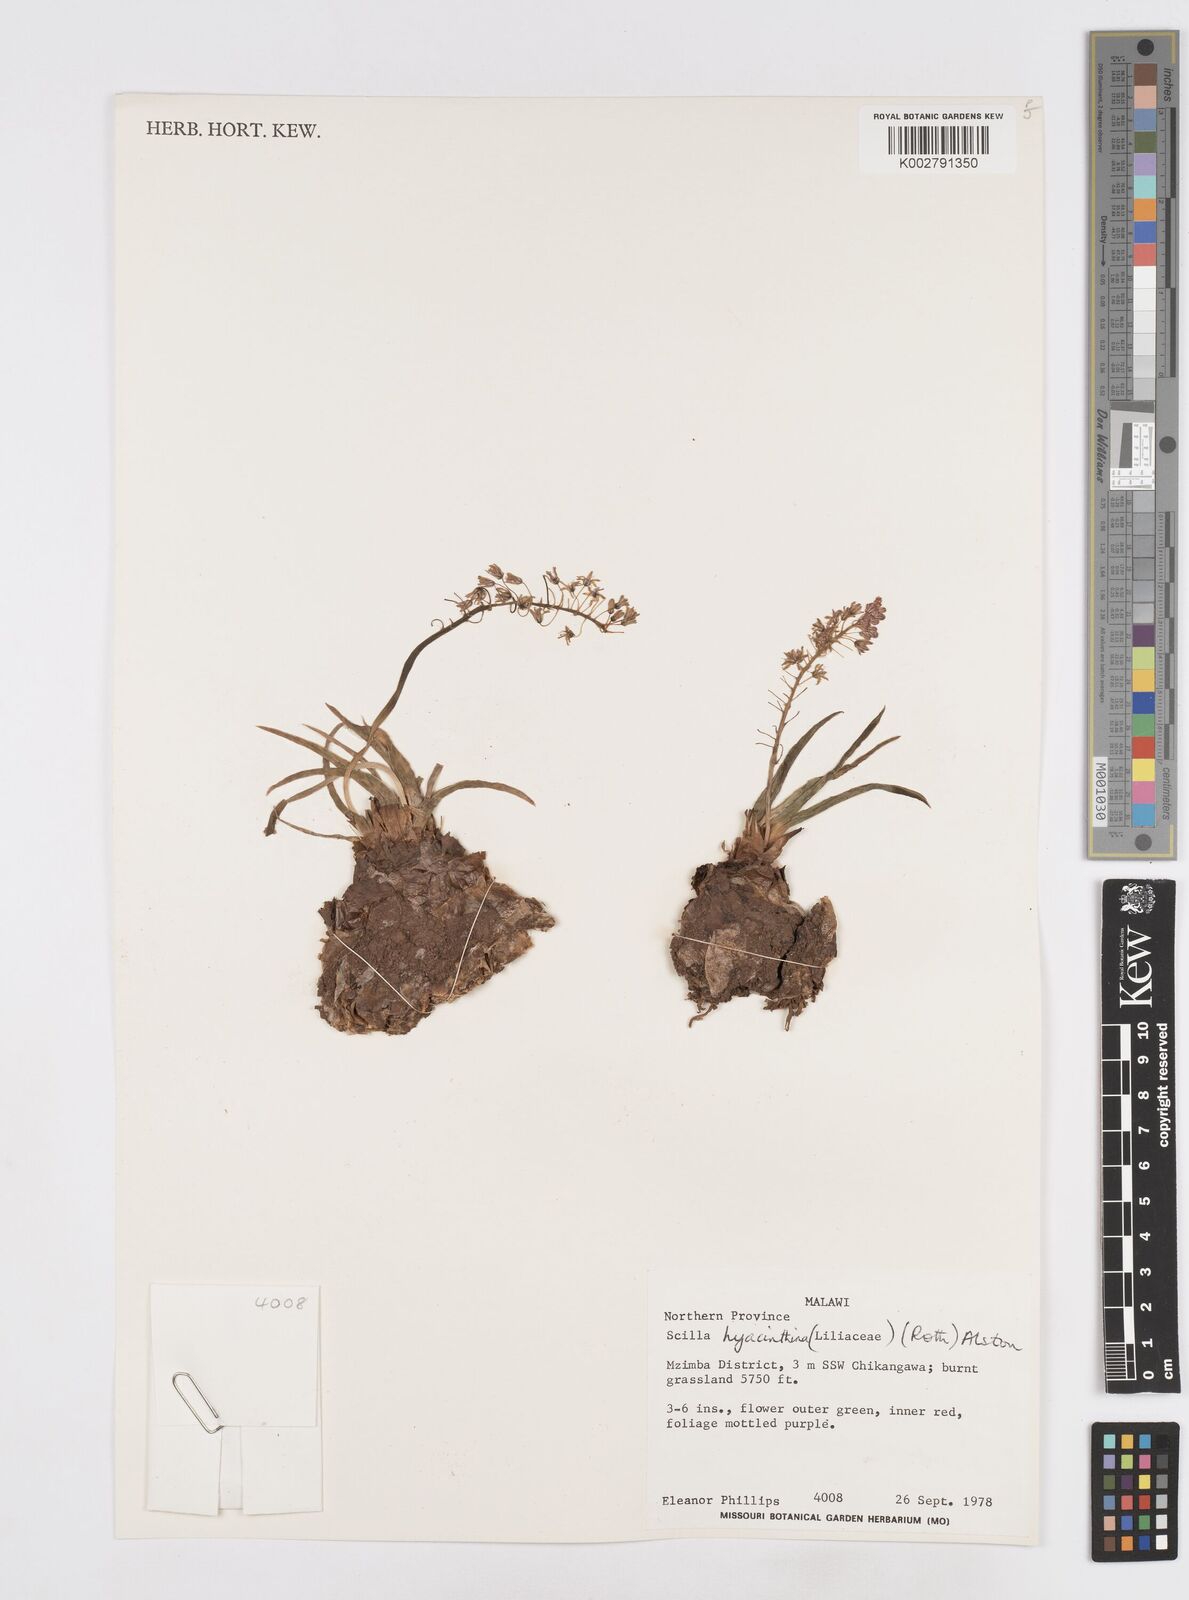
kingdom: Plantae
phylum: Tracheophyta
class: Liliopsida
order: Asparagales
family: Asparagaceae
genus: Ledebouria
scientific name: Ledebouria revoluta
